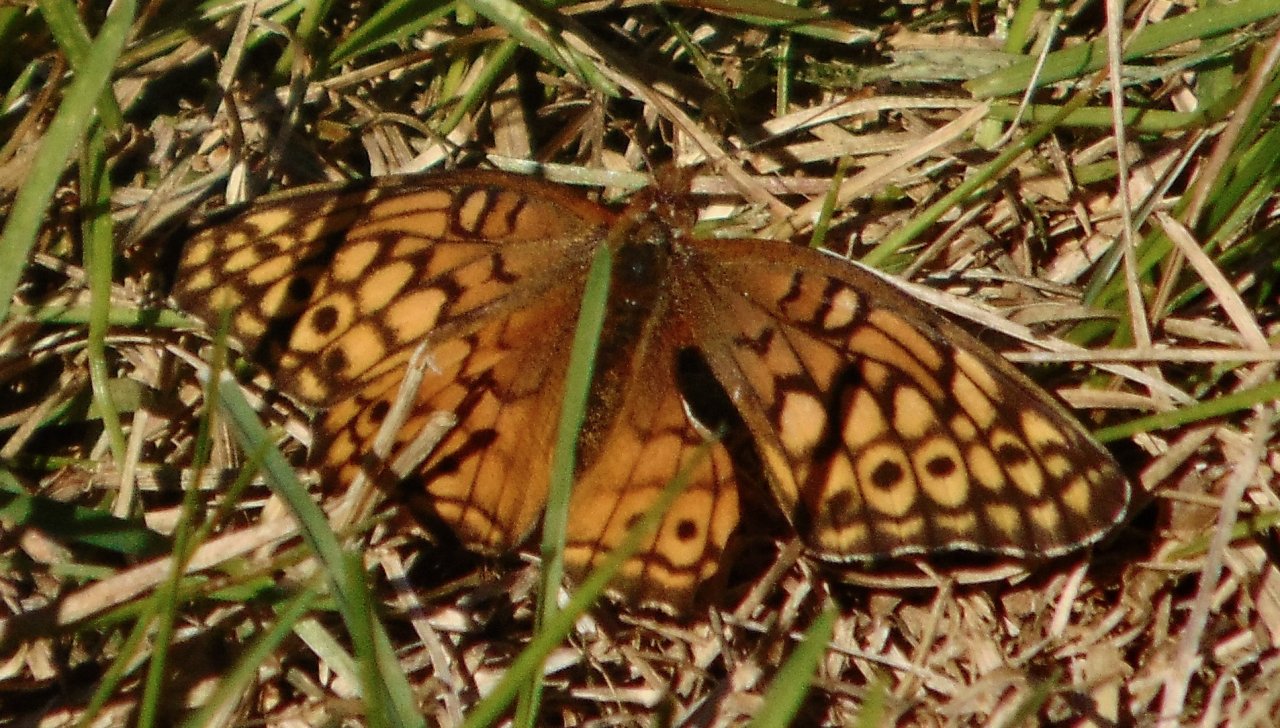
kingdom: Animalia
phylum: Arthropoda
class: Insecta
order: Lepidoptera
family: Nymphalidae
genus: Euptoieta
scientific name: Euptoieta claudia
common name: Variegated Fritillary
